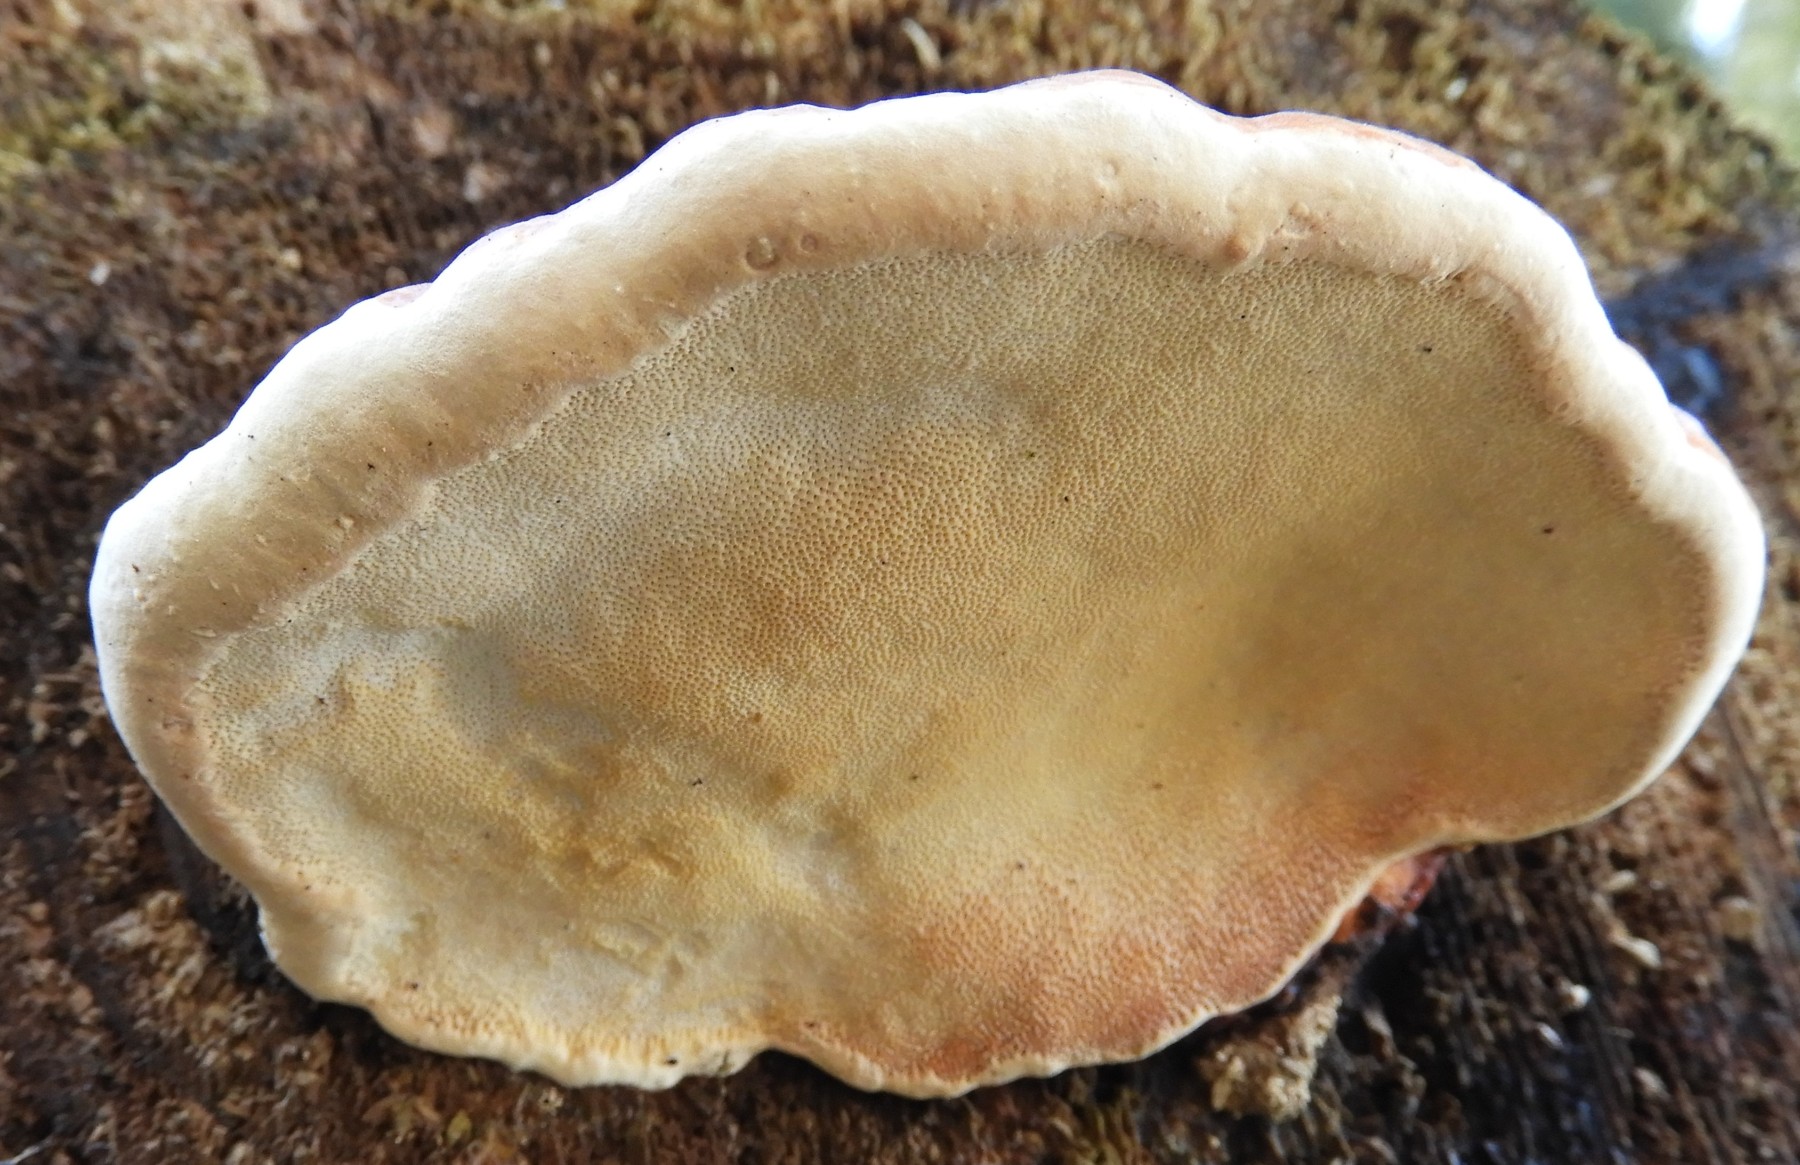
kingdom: Fungi
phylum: Basidiomycota
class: Agaricomycetes
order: Polyporales
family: Fomitopsidaceae
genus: Fomitopsis
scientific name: Fomitopsis pinicola
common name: randbæltet hovporesvamp
